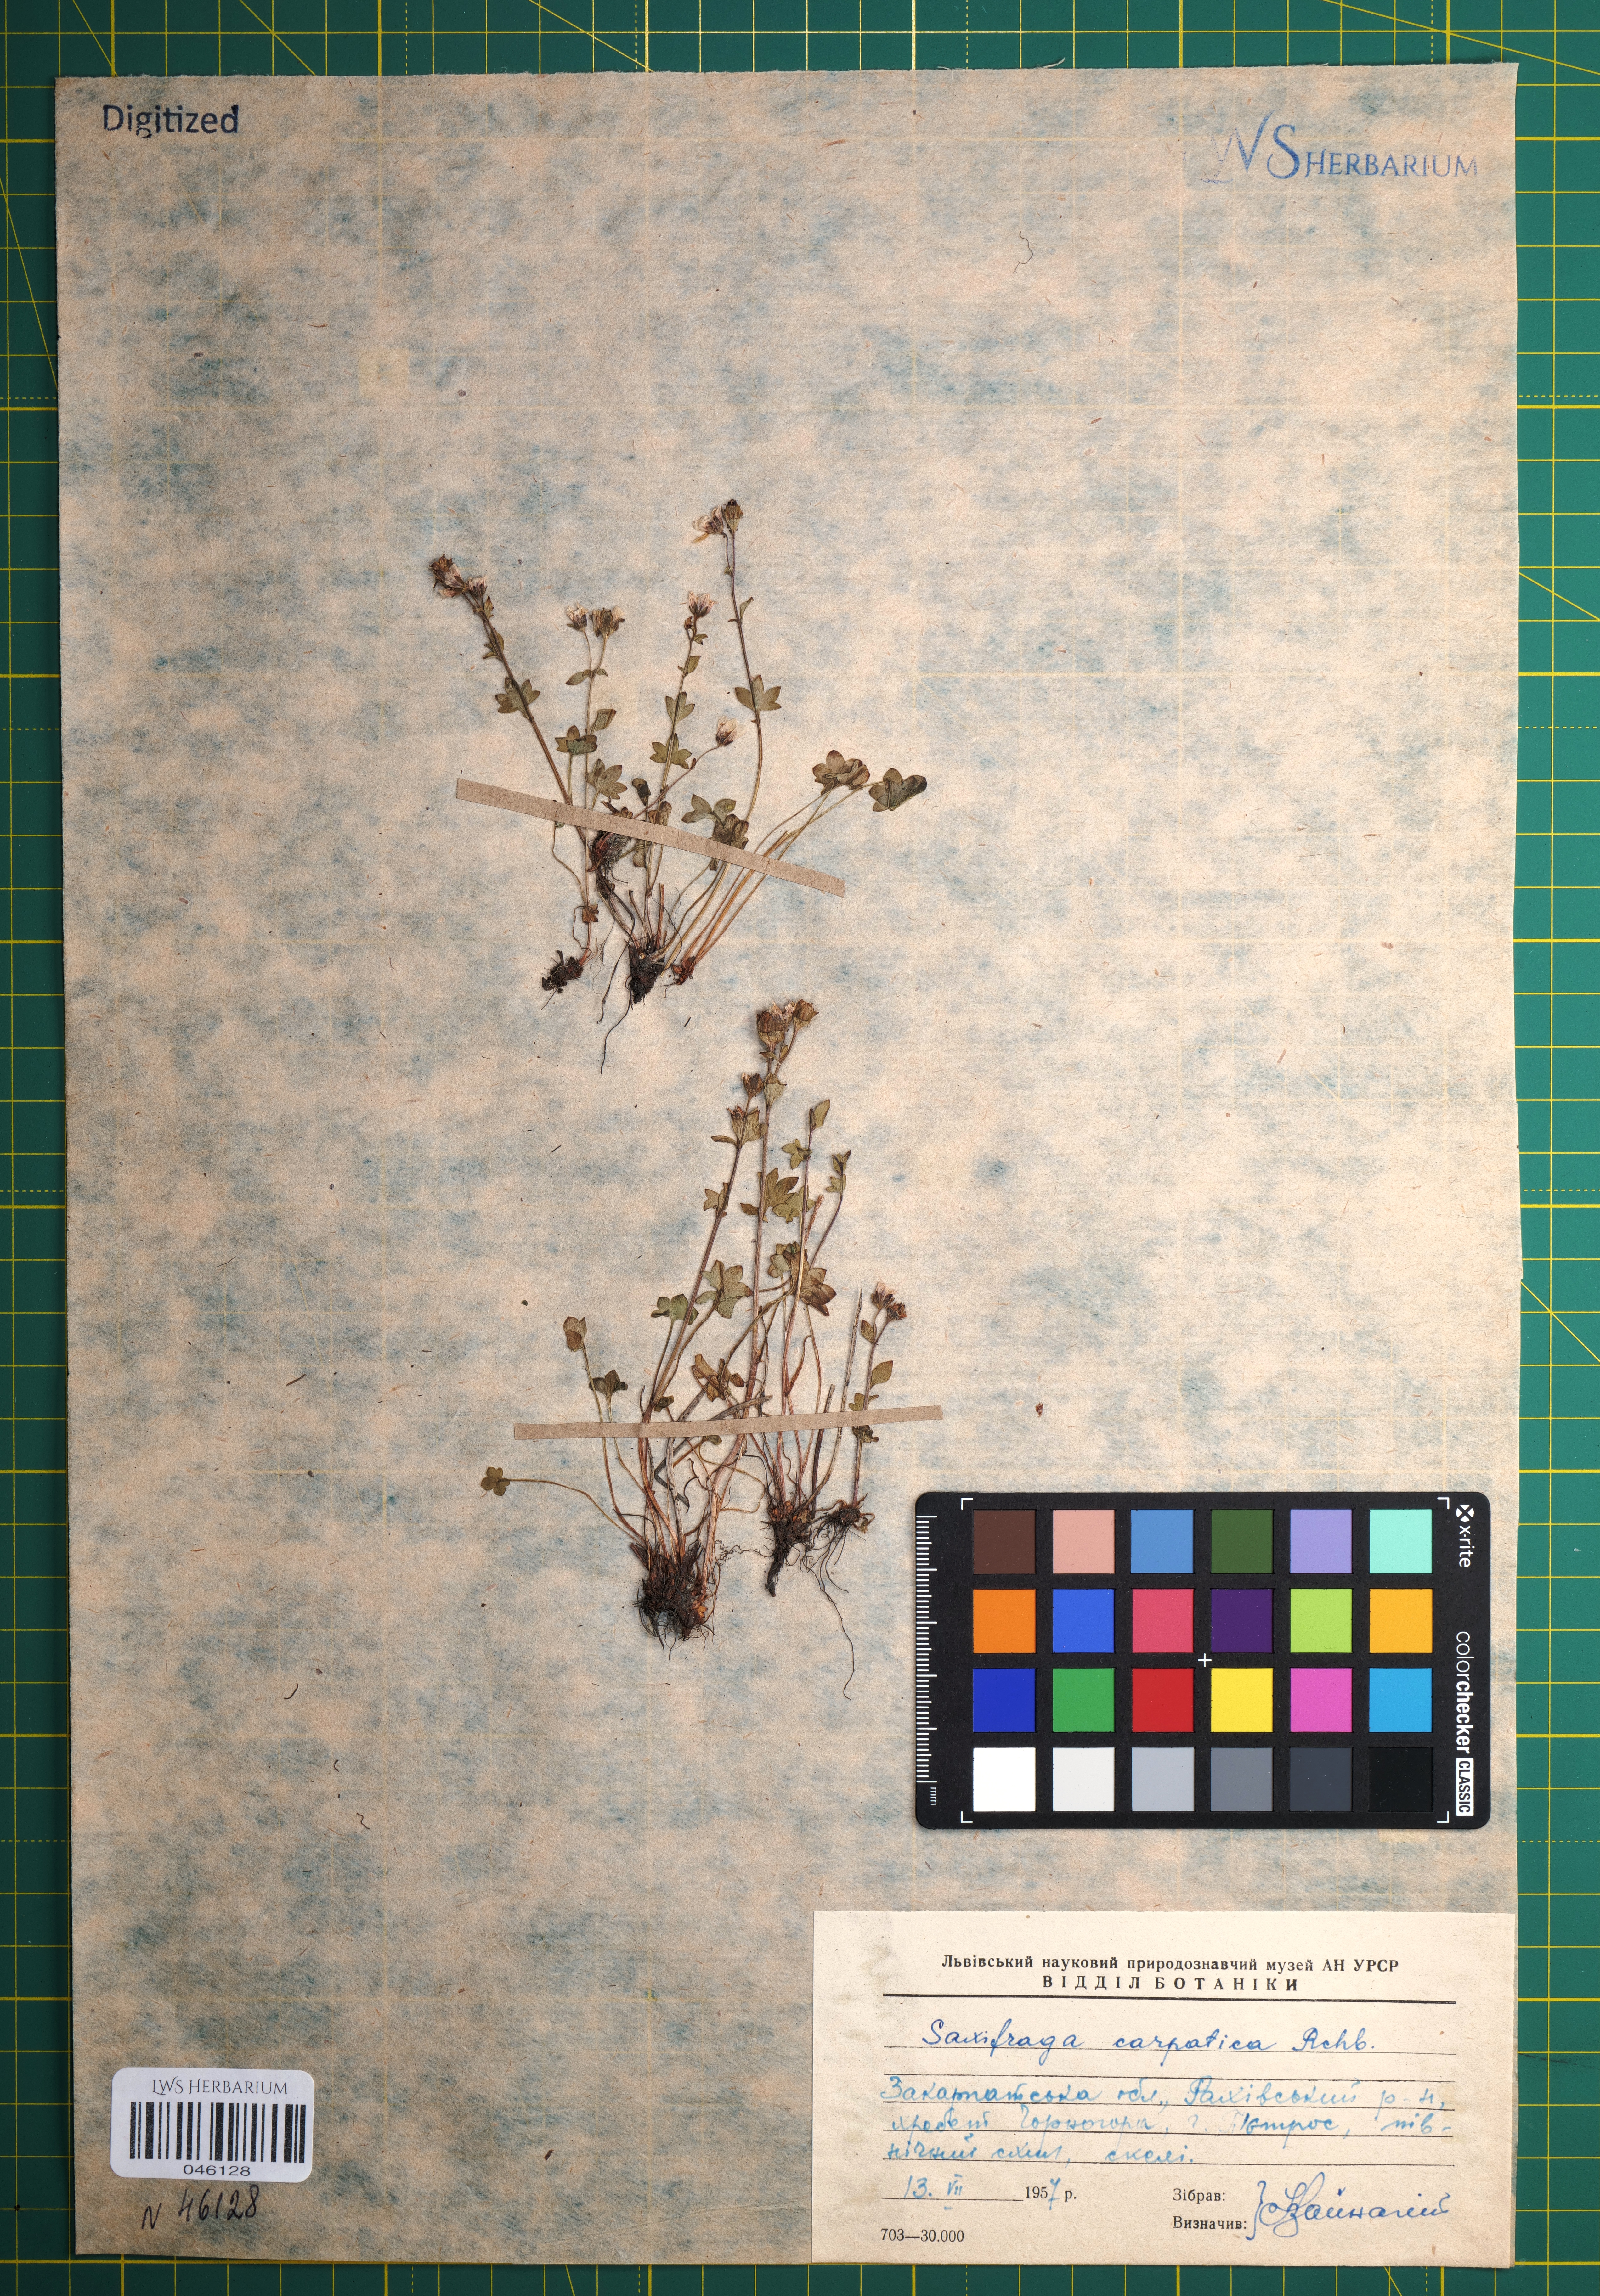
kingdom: Plantae
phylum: Tracheophyta
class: Magnoliopsida
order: Saxifragales
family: Saxifragaceae
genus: Saxifraga
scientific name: Saxifraga carpatica
